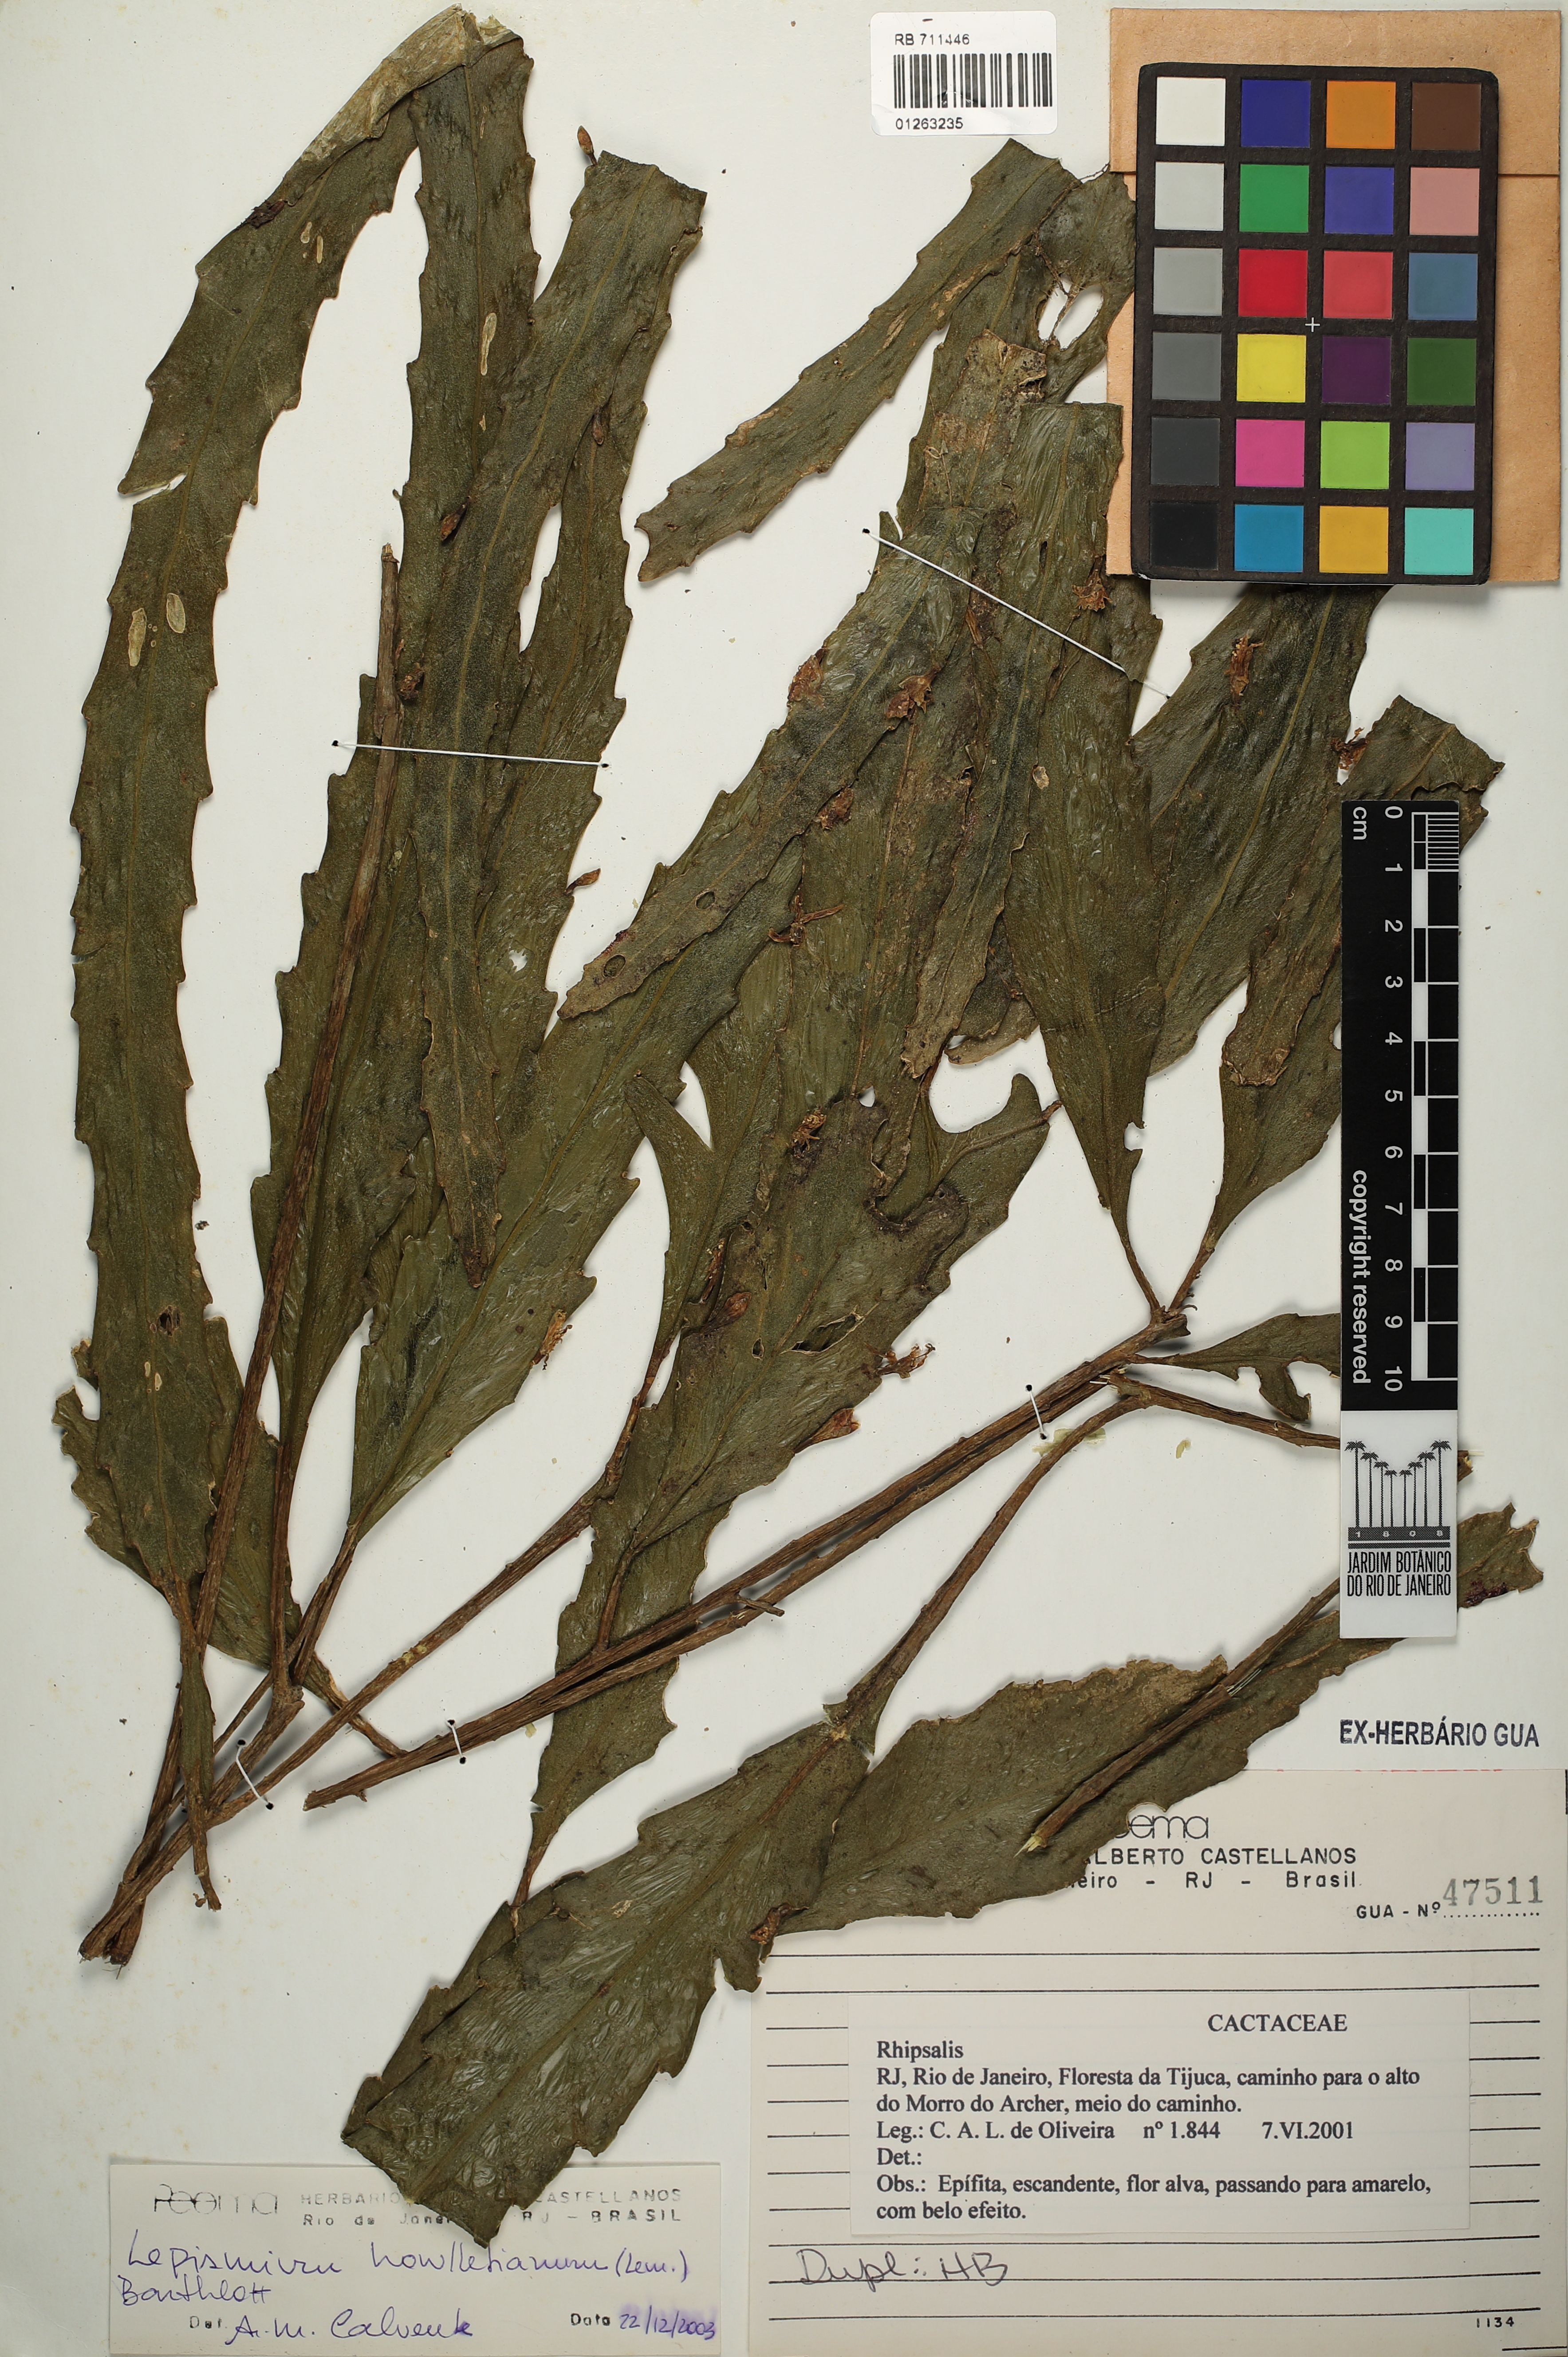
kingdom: Plantae
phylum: Tracheophyta
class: Magnoliopsida
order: Caryophyllales
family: Cactaceae
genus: Lepismium
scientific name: Lepismium houlletianum
